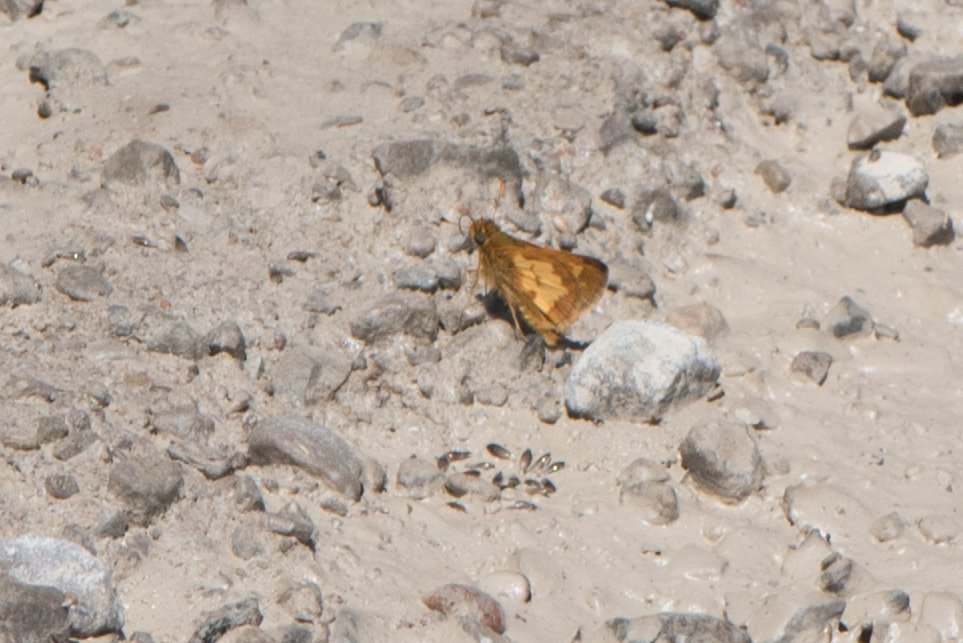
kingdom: Animalia
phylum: Arthropoda
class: Insecta
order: Lepidoptera
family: Hesperiidae
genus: Polites
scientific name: Polites coras
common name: Peck's Skipper
